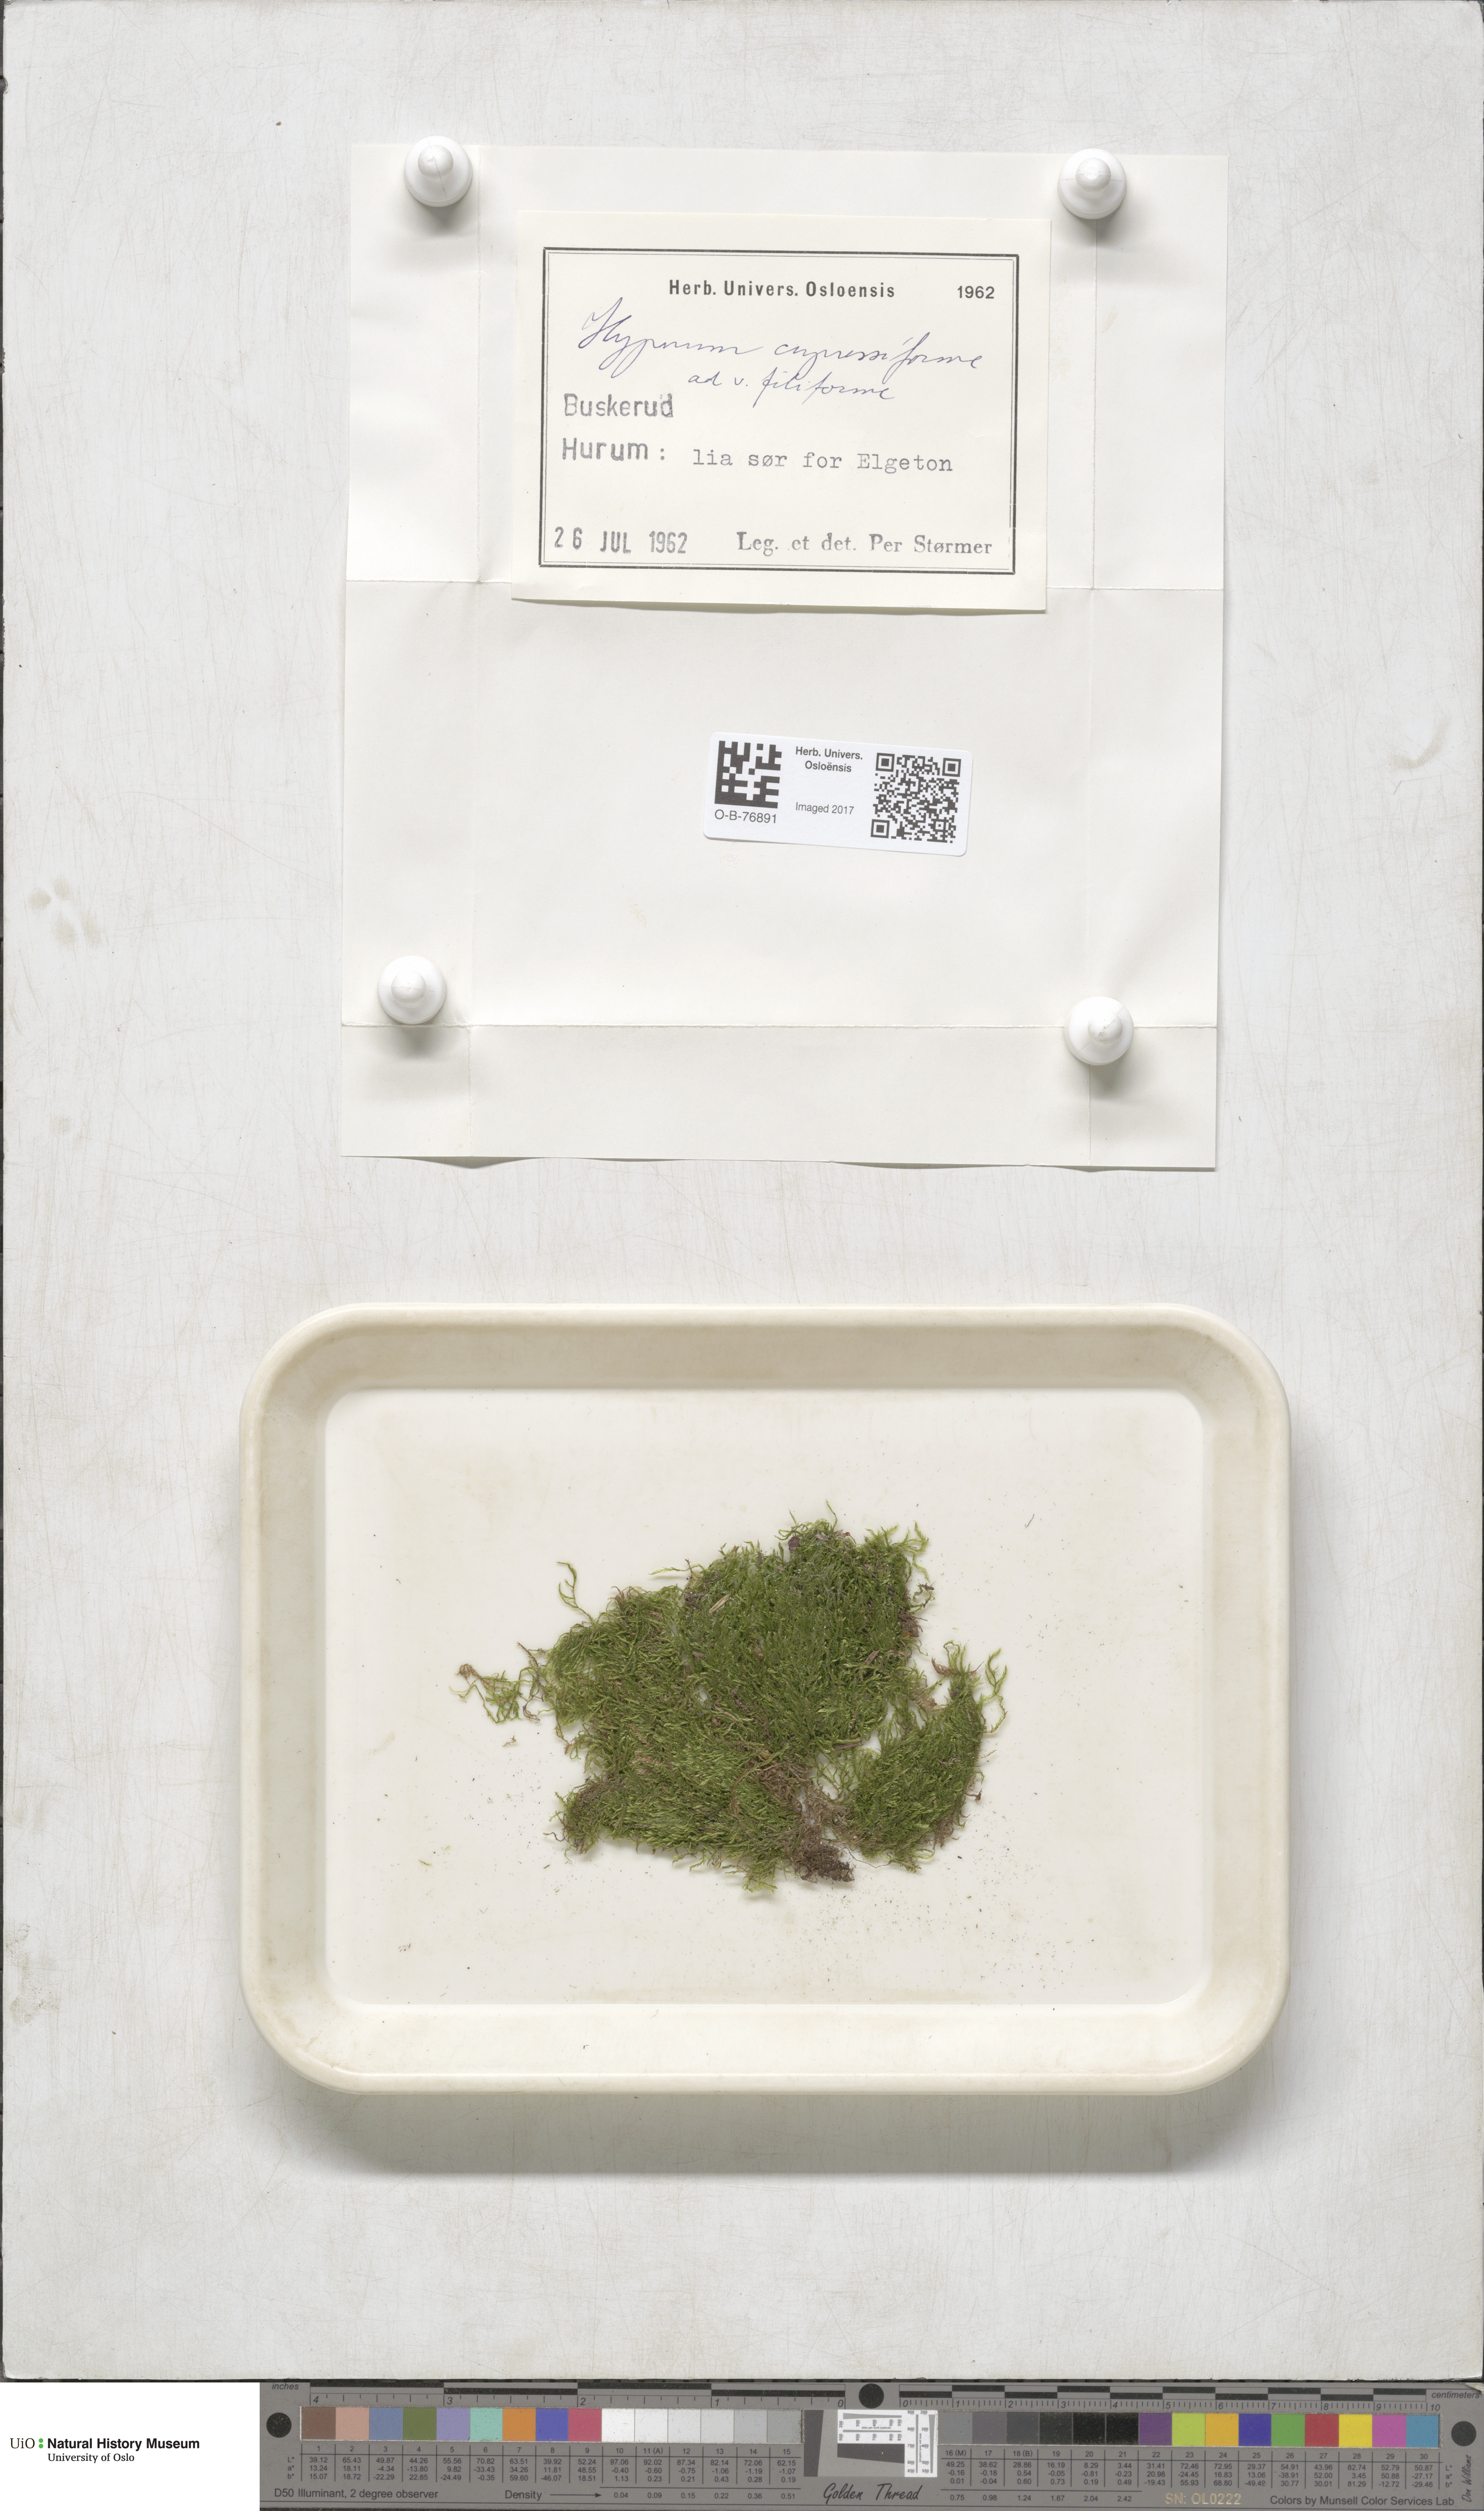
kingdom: Plantae
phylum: Bryophyta
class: Bryopsida
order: Hypnales
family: Hypnaceae
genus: Hypnum
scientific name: Hypnum andoi
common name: Ando's plait moss
